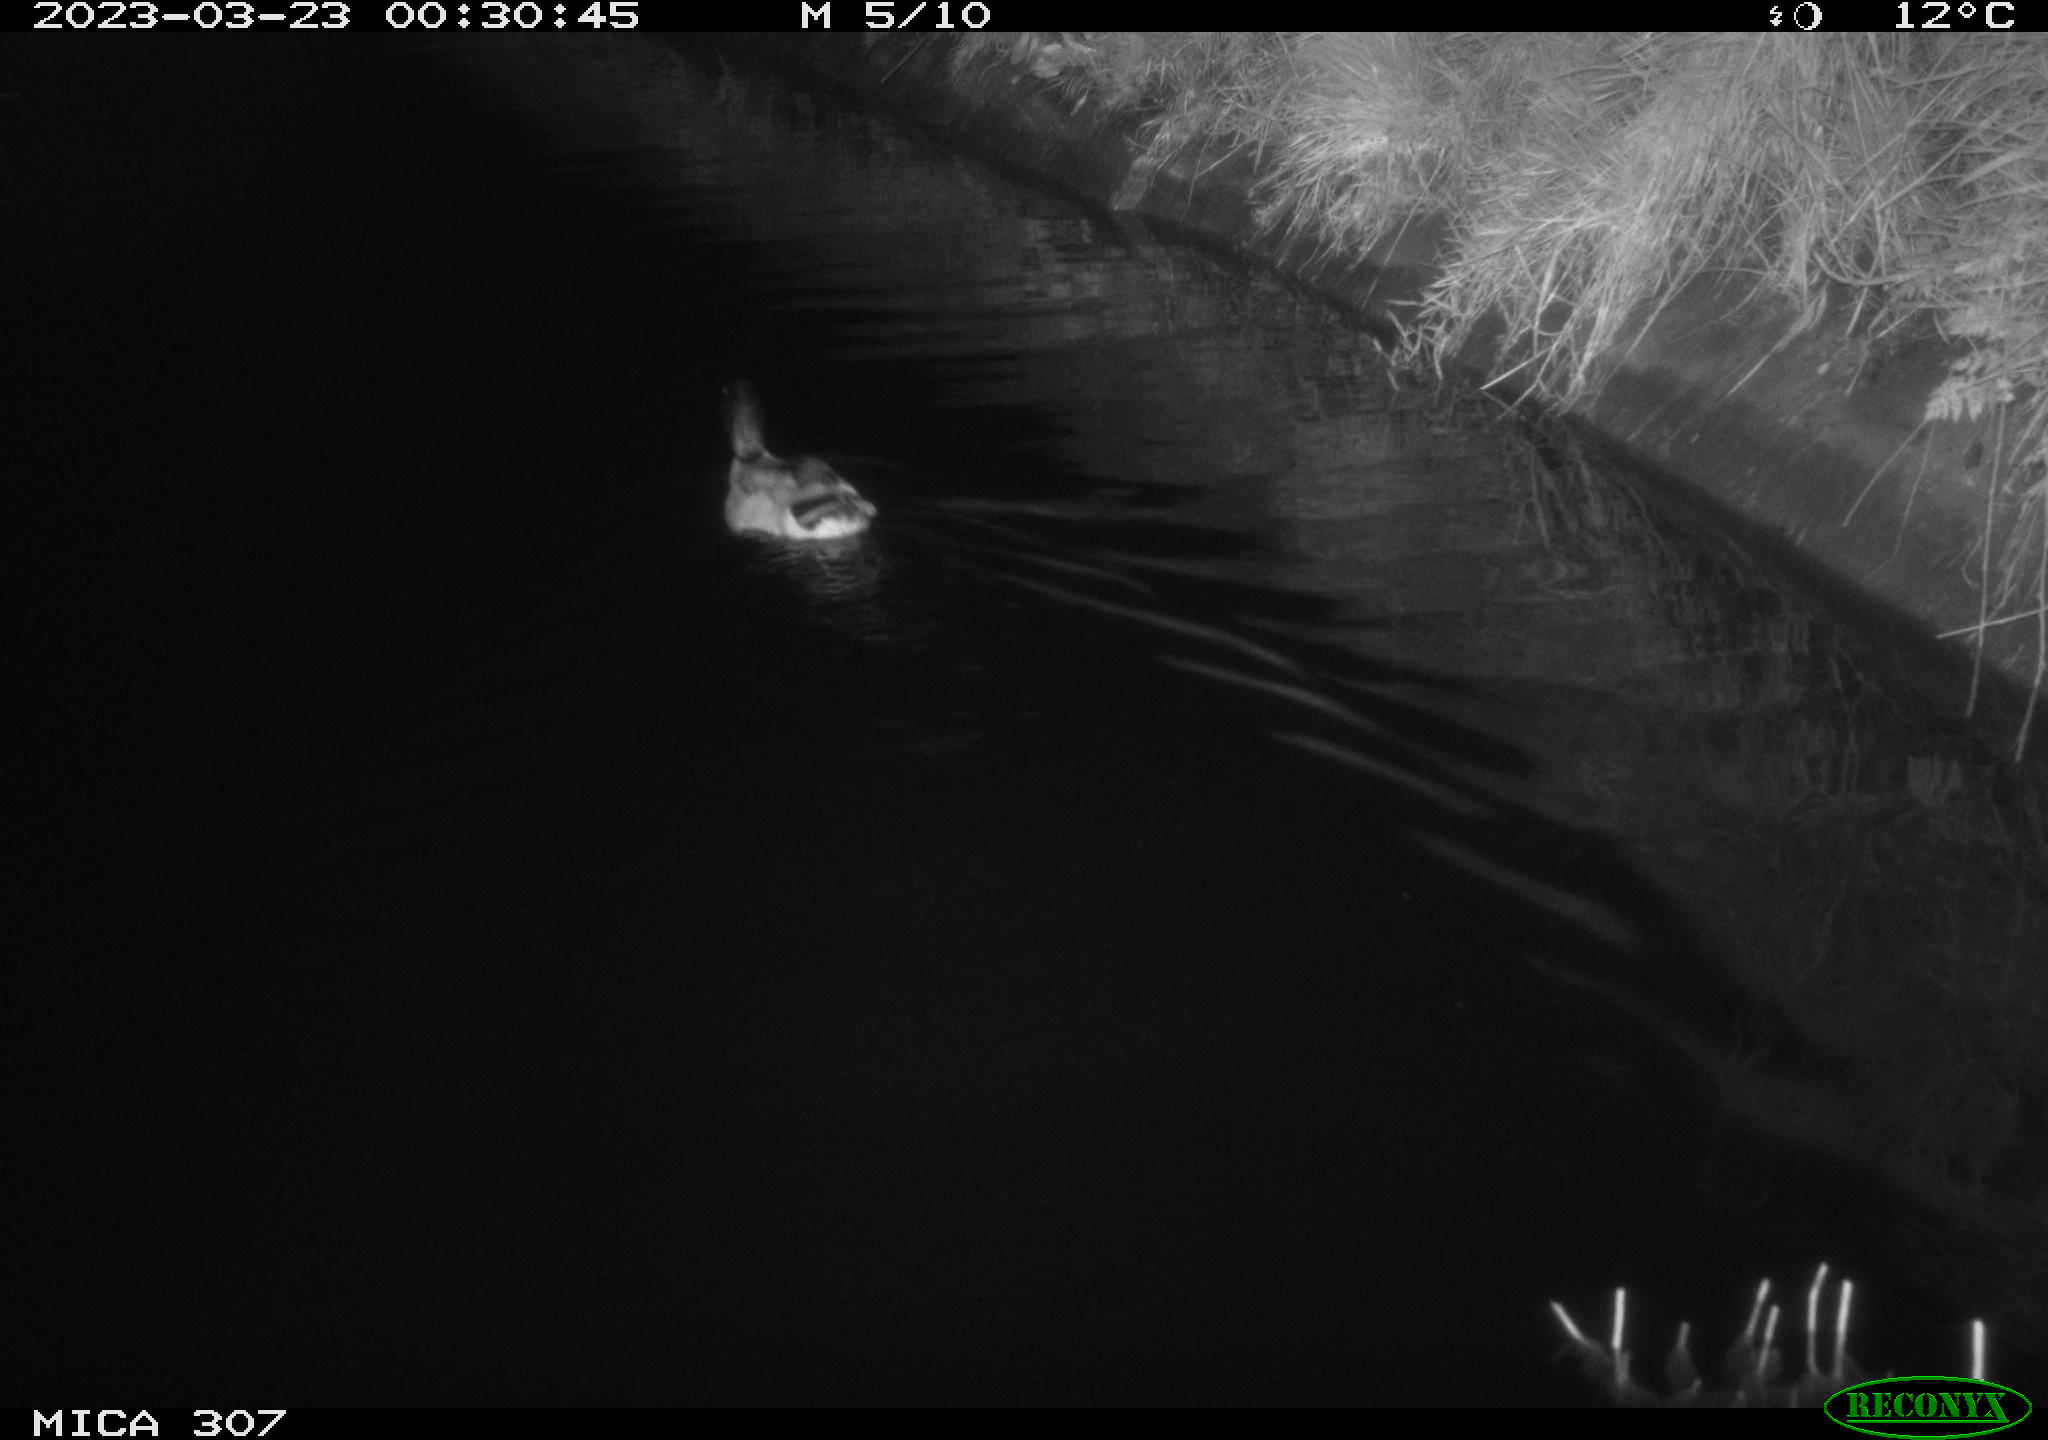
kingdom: Animalia
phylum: Chordata
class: Aves
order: Anseriformes
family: Anatidae
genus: Anas
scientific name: Anas
